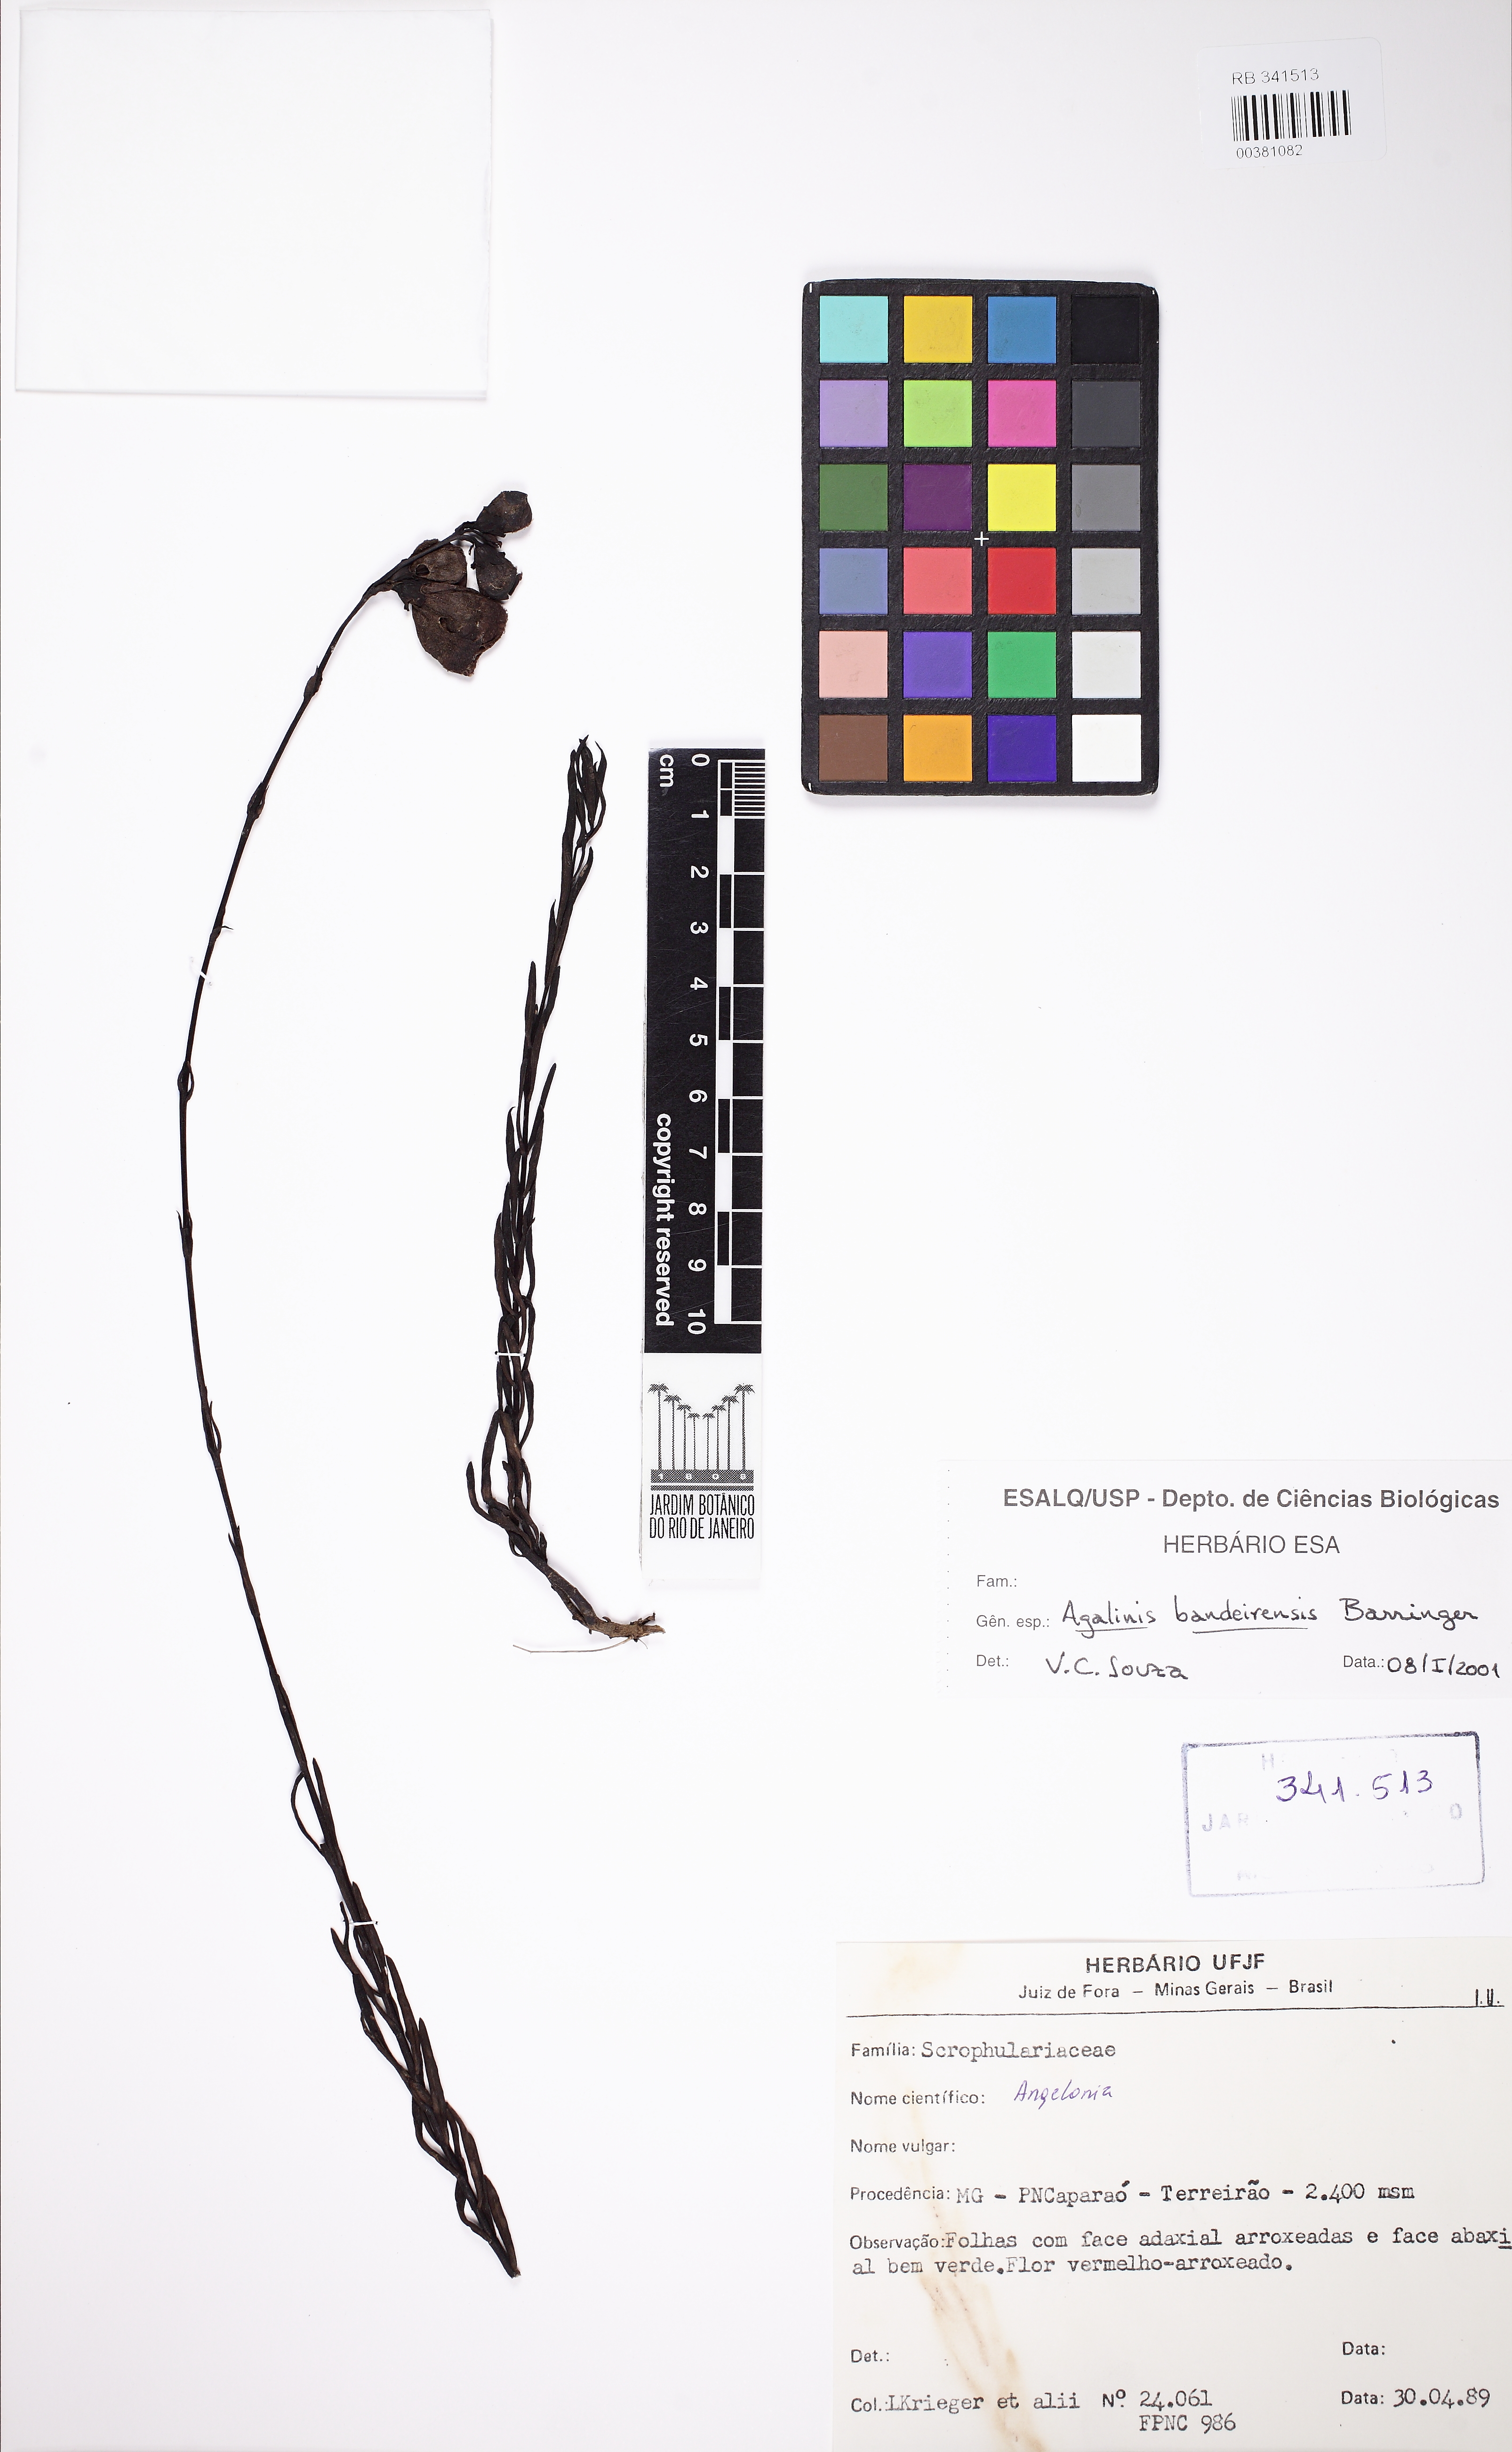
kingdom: Plantae
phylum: Tracheophyta
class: Magnoliopsida
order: Lamiales
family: Orobanchaceae
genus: Agalinis
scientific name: Agalinis bandeirensis
